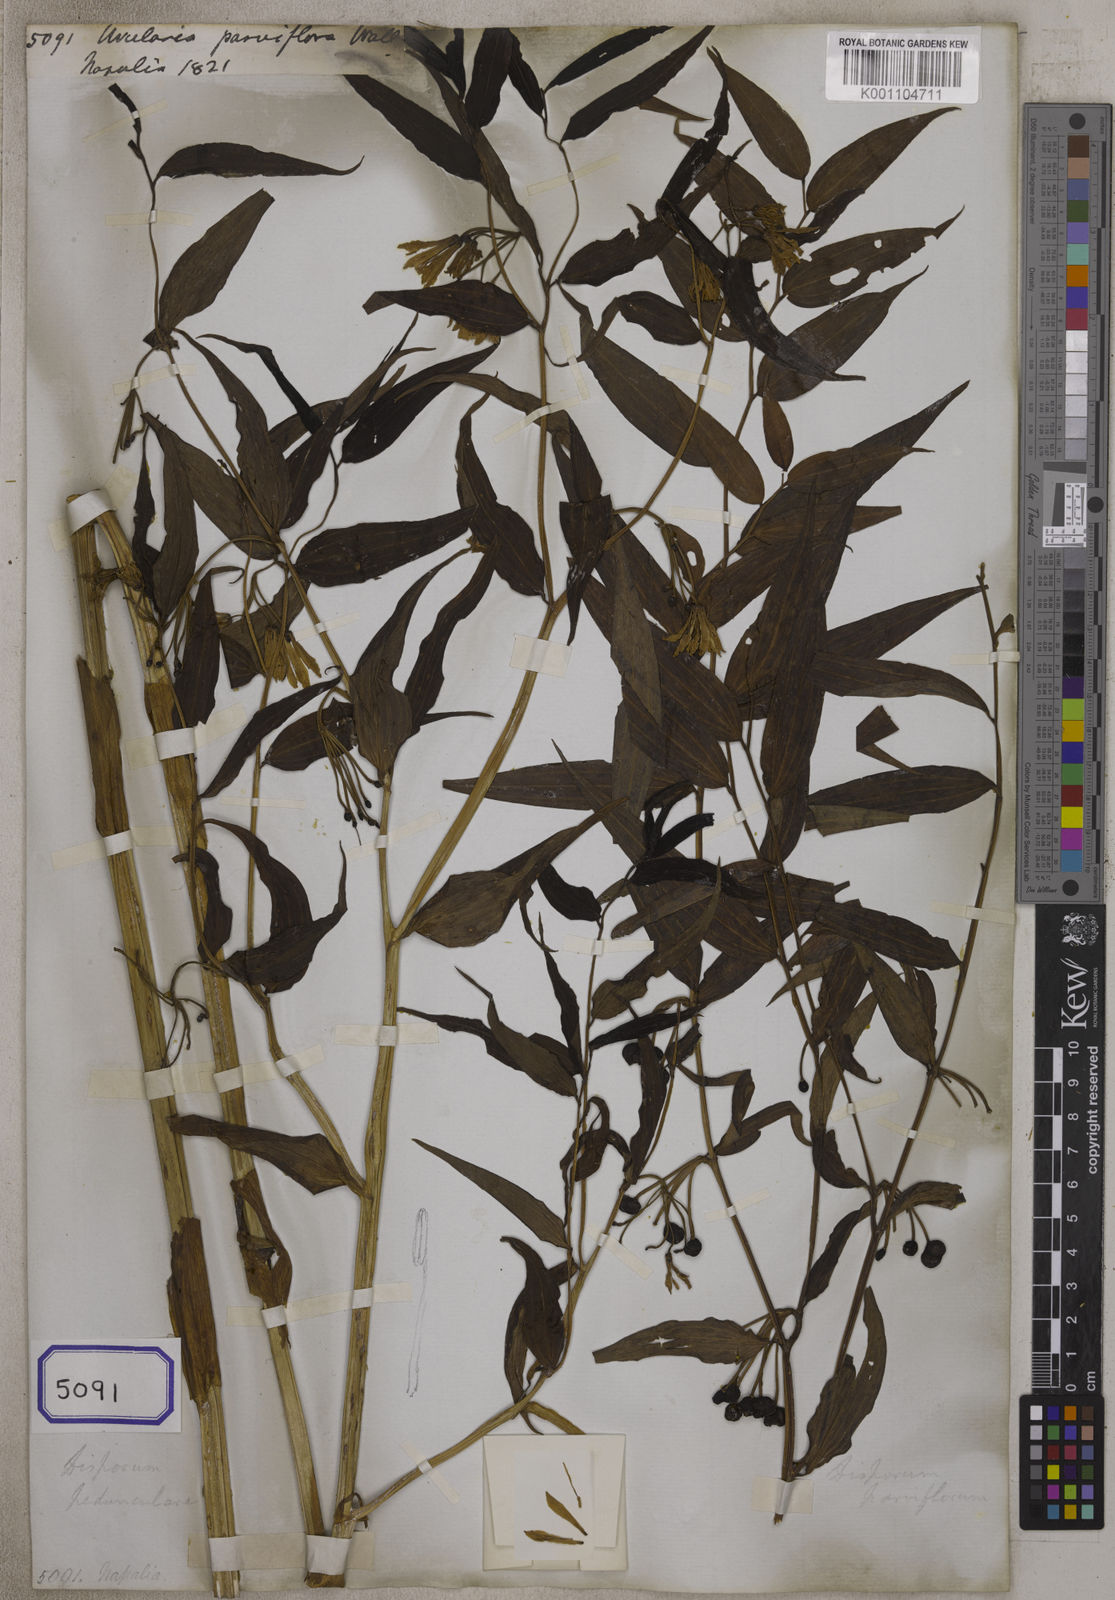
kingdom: Plantae
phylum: Tracheophyta
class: Liliopsida
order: Liliales
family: Colchicaceae
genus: Disporum
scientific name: Disporum cantoniense
